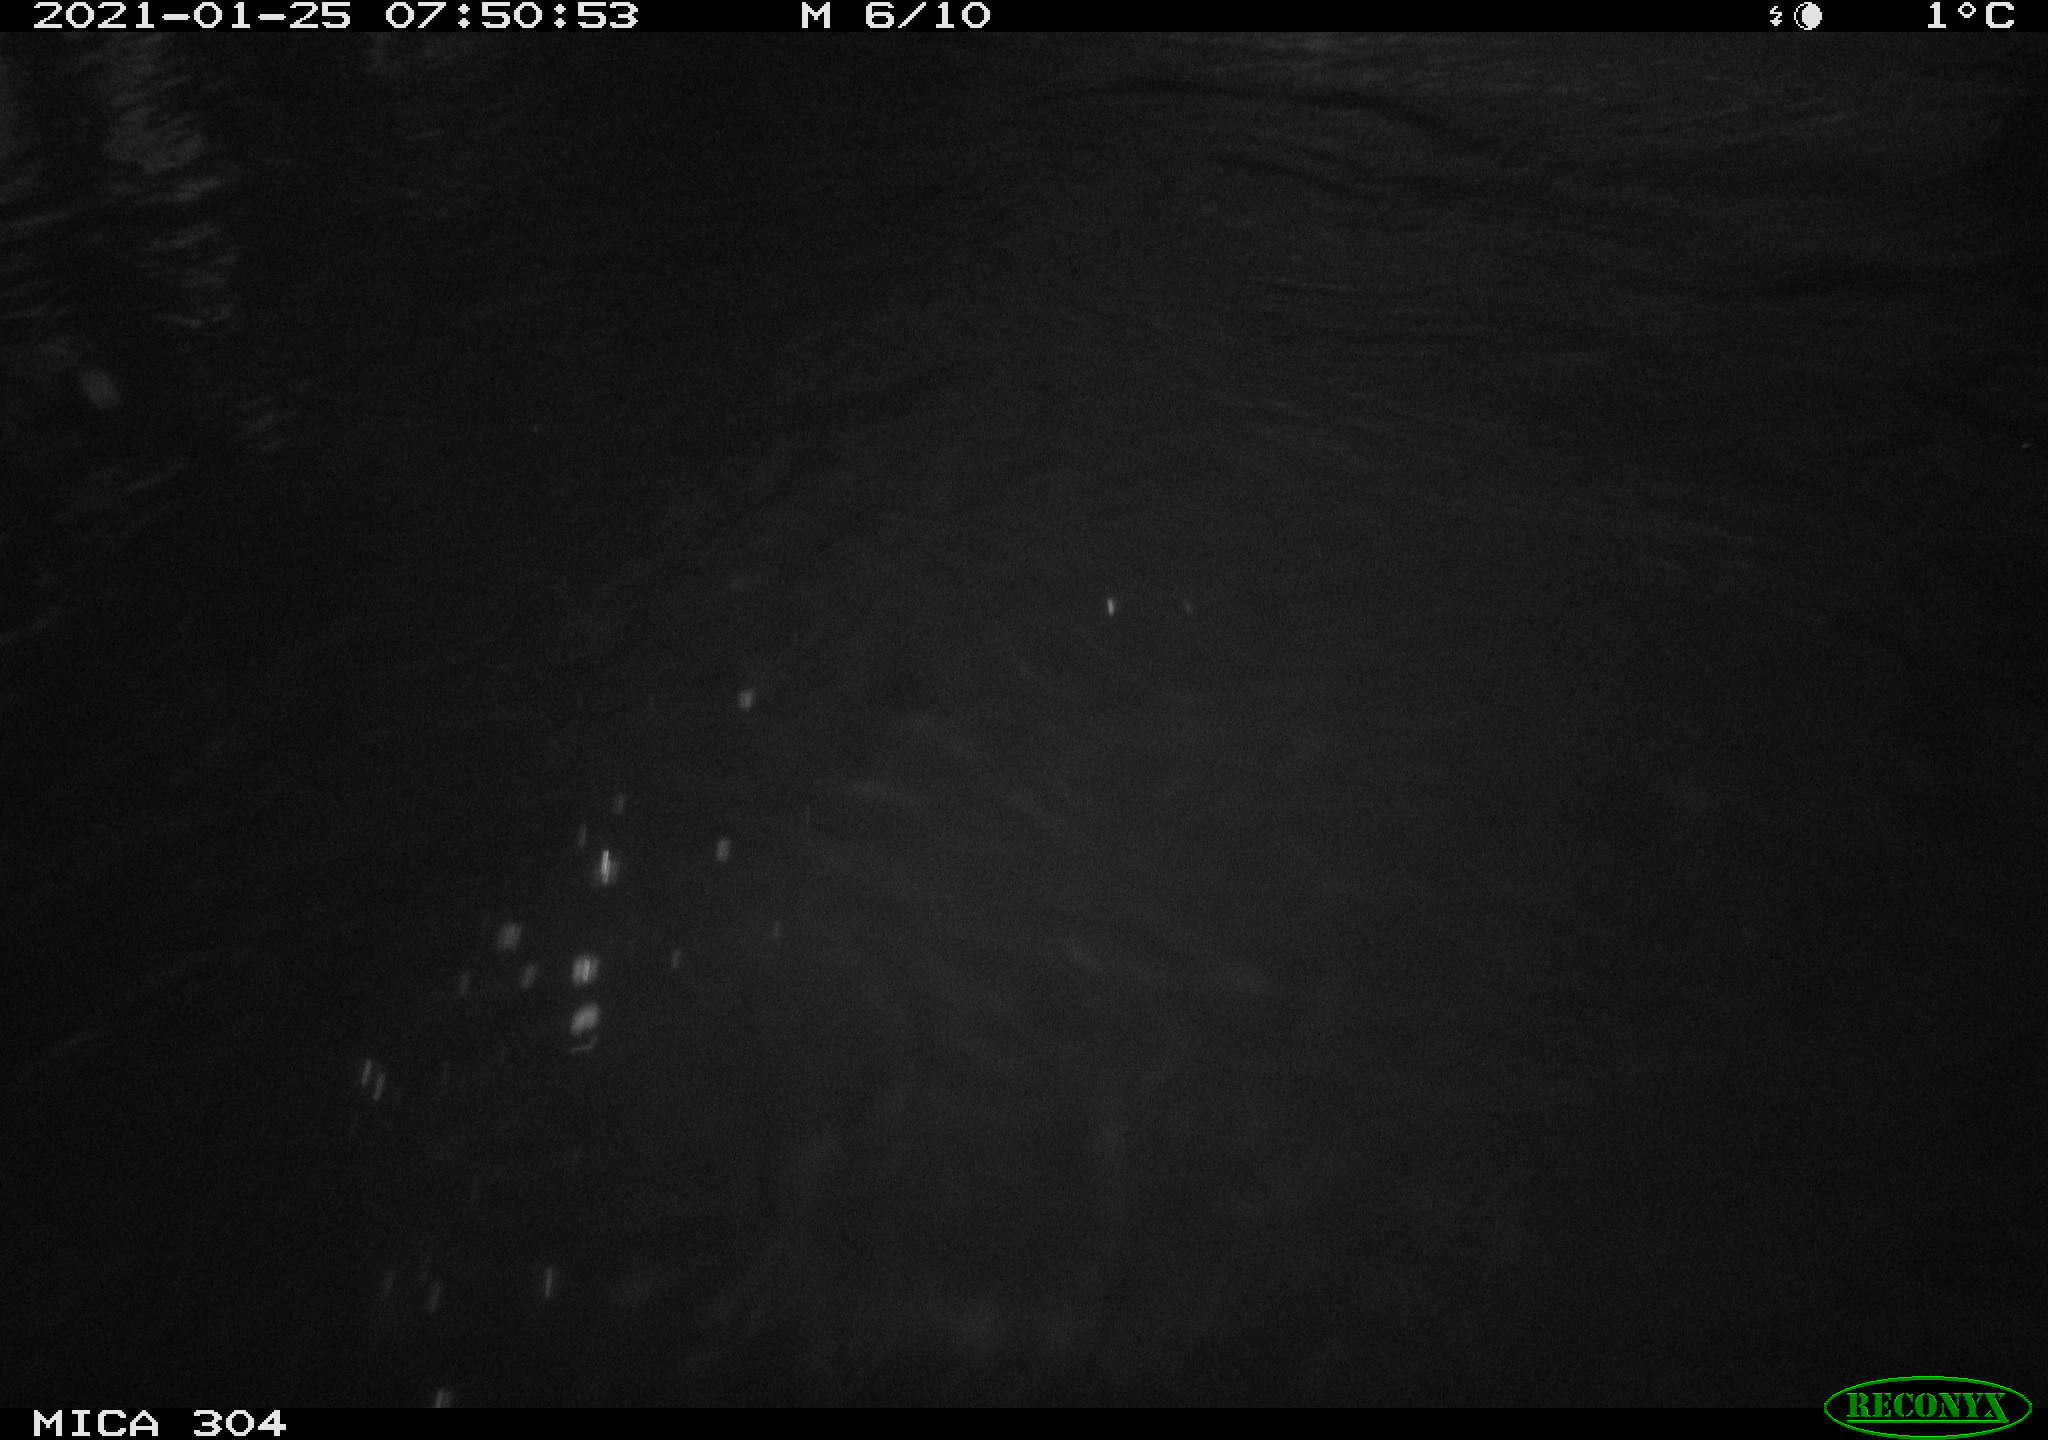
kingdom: Animalia
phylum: Chordata
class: Aves
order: Anseriformes
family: Anatidae
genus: Anas
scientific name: Anas platyrhynchos
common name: Mallard
